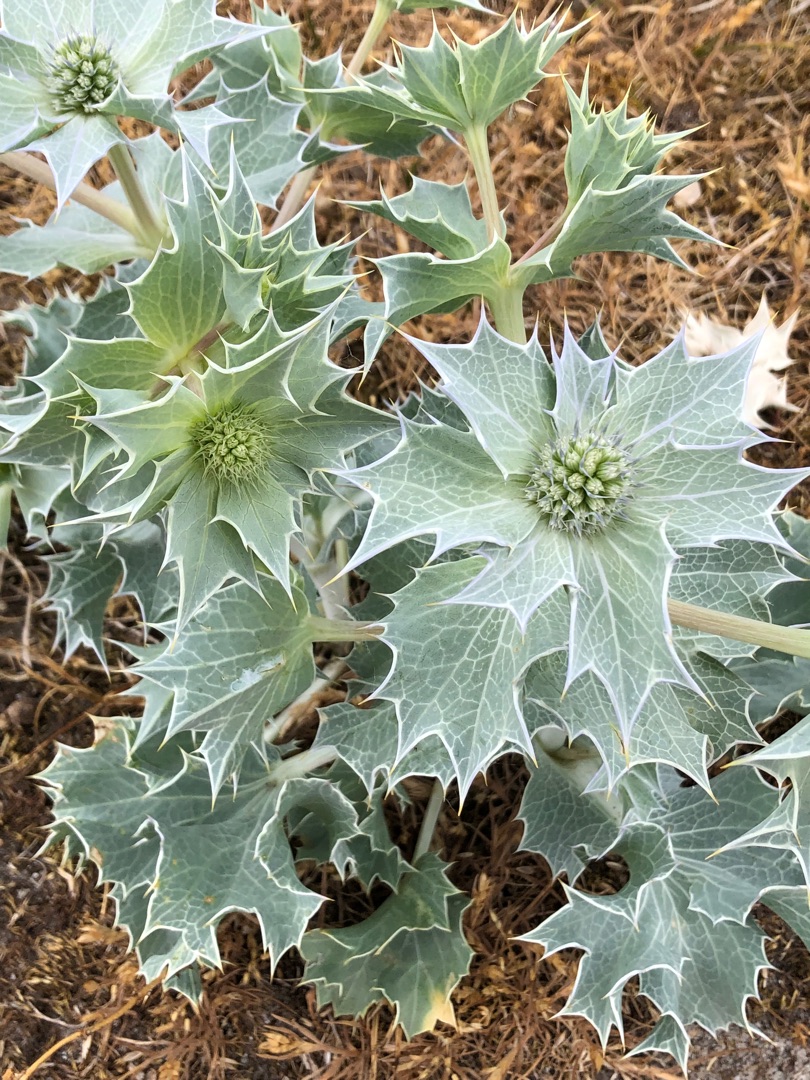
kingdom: Plantae
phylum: Tracheophyta
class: Magnoliopsida
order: Apiales
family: Apiaceae
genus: Eryngium
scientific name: Eryngium maritimum
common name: Strand-mandstro
